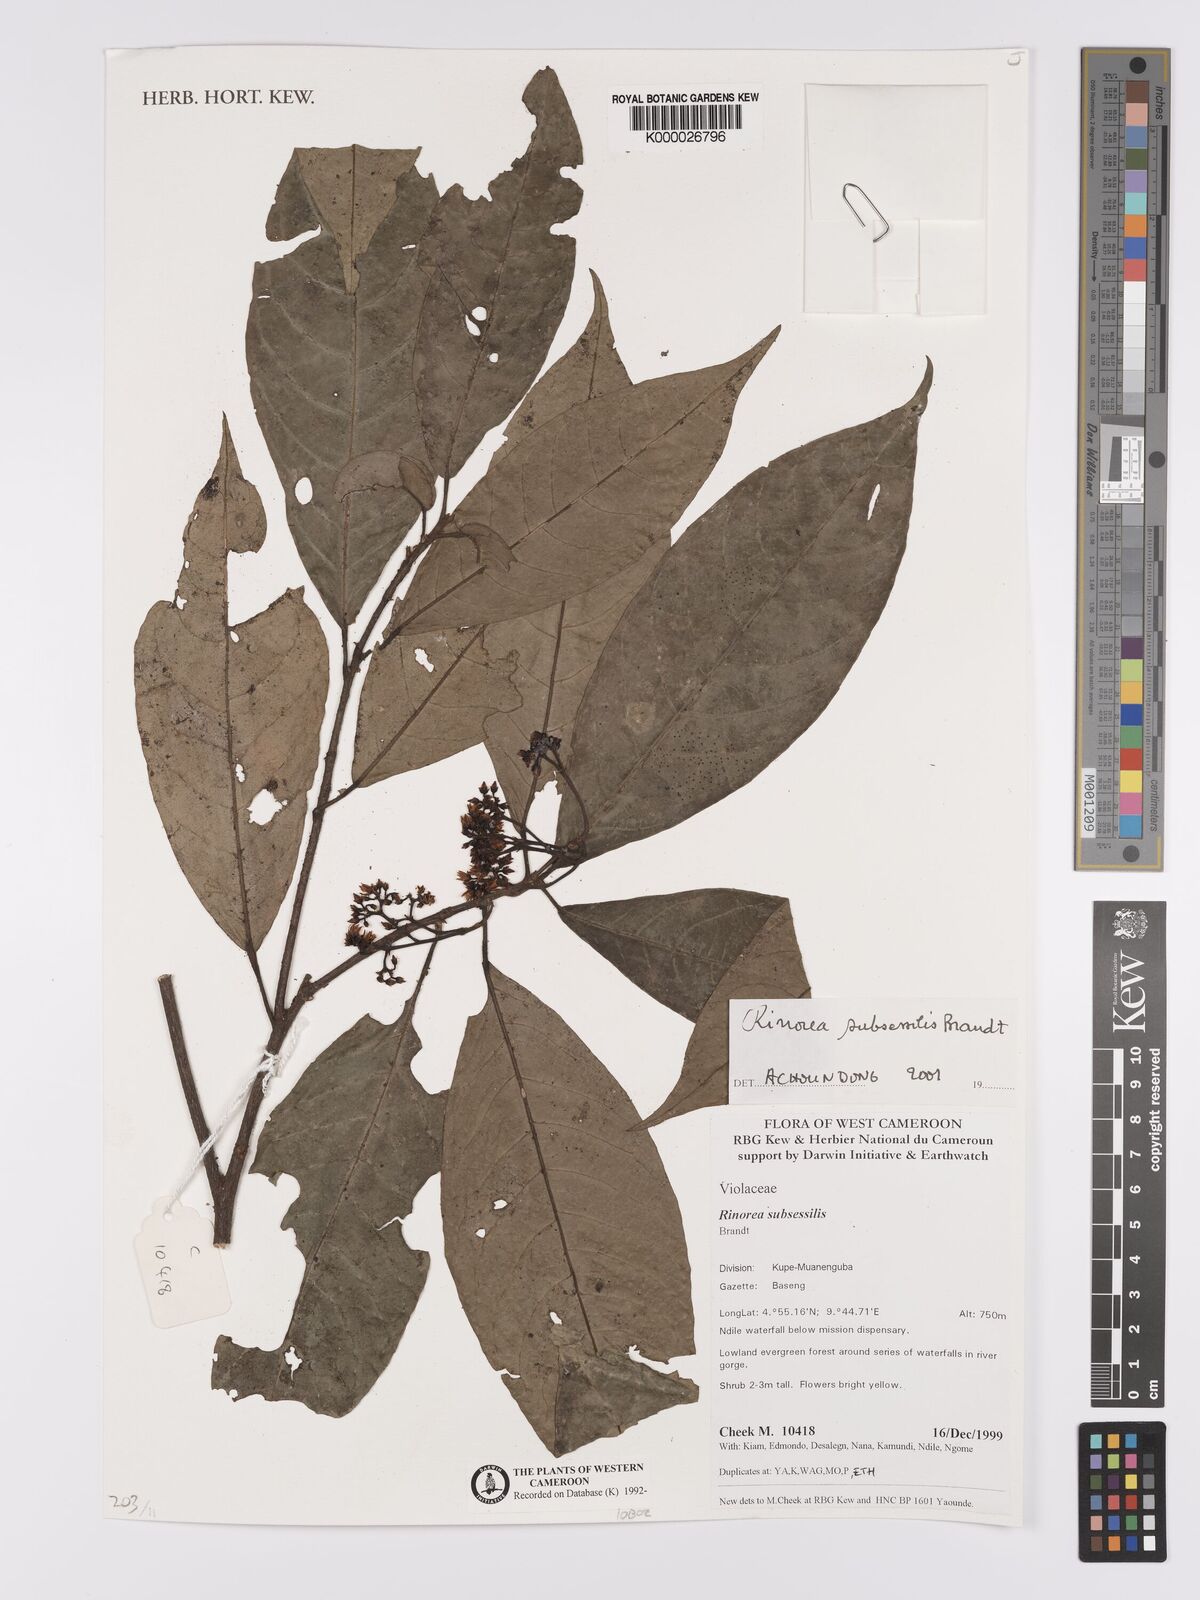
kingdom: Plantae
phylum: Tracheophyta
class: Magnoliopsida
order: Malpighiales
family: Violaceae
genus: Rinorea
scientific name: Rinorea subsessilis
